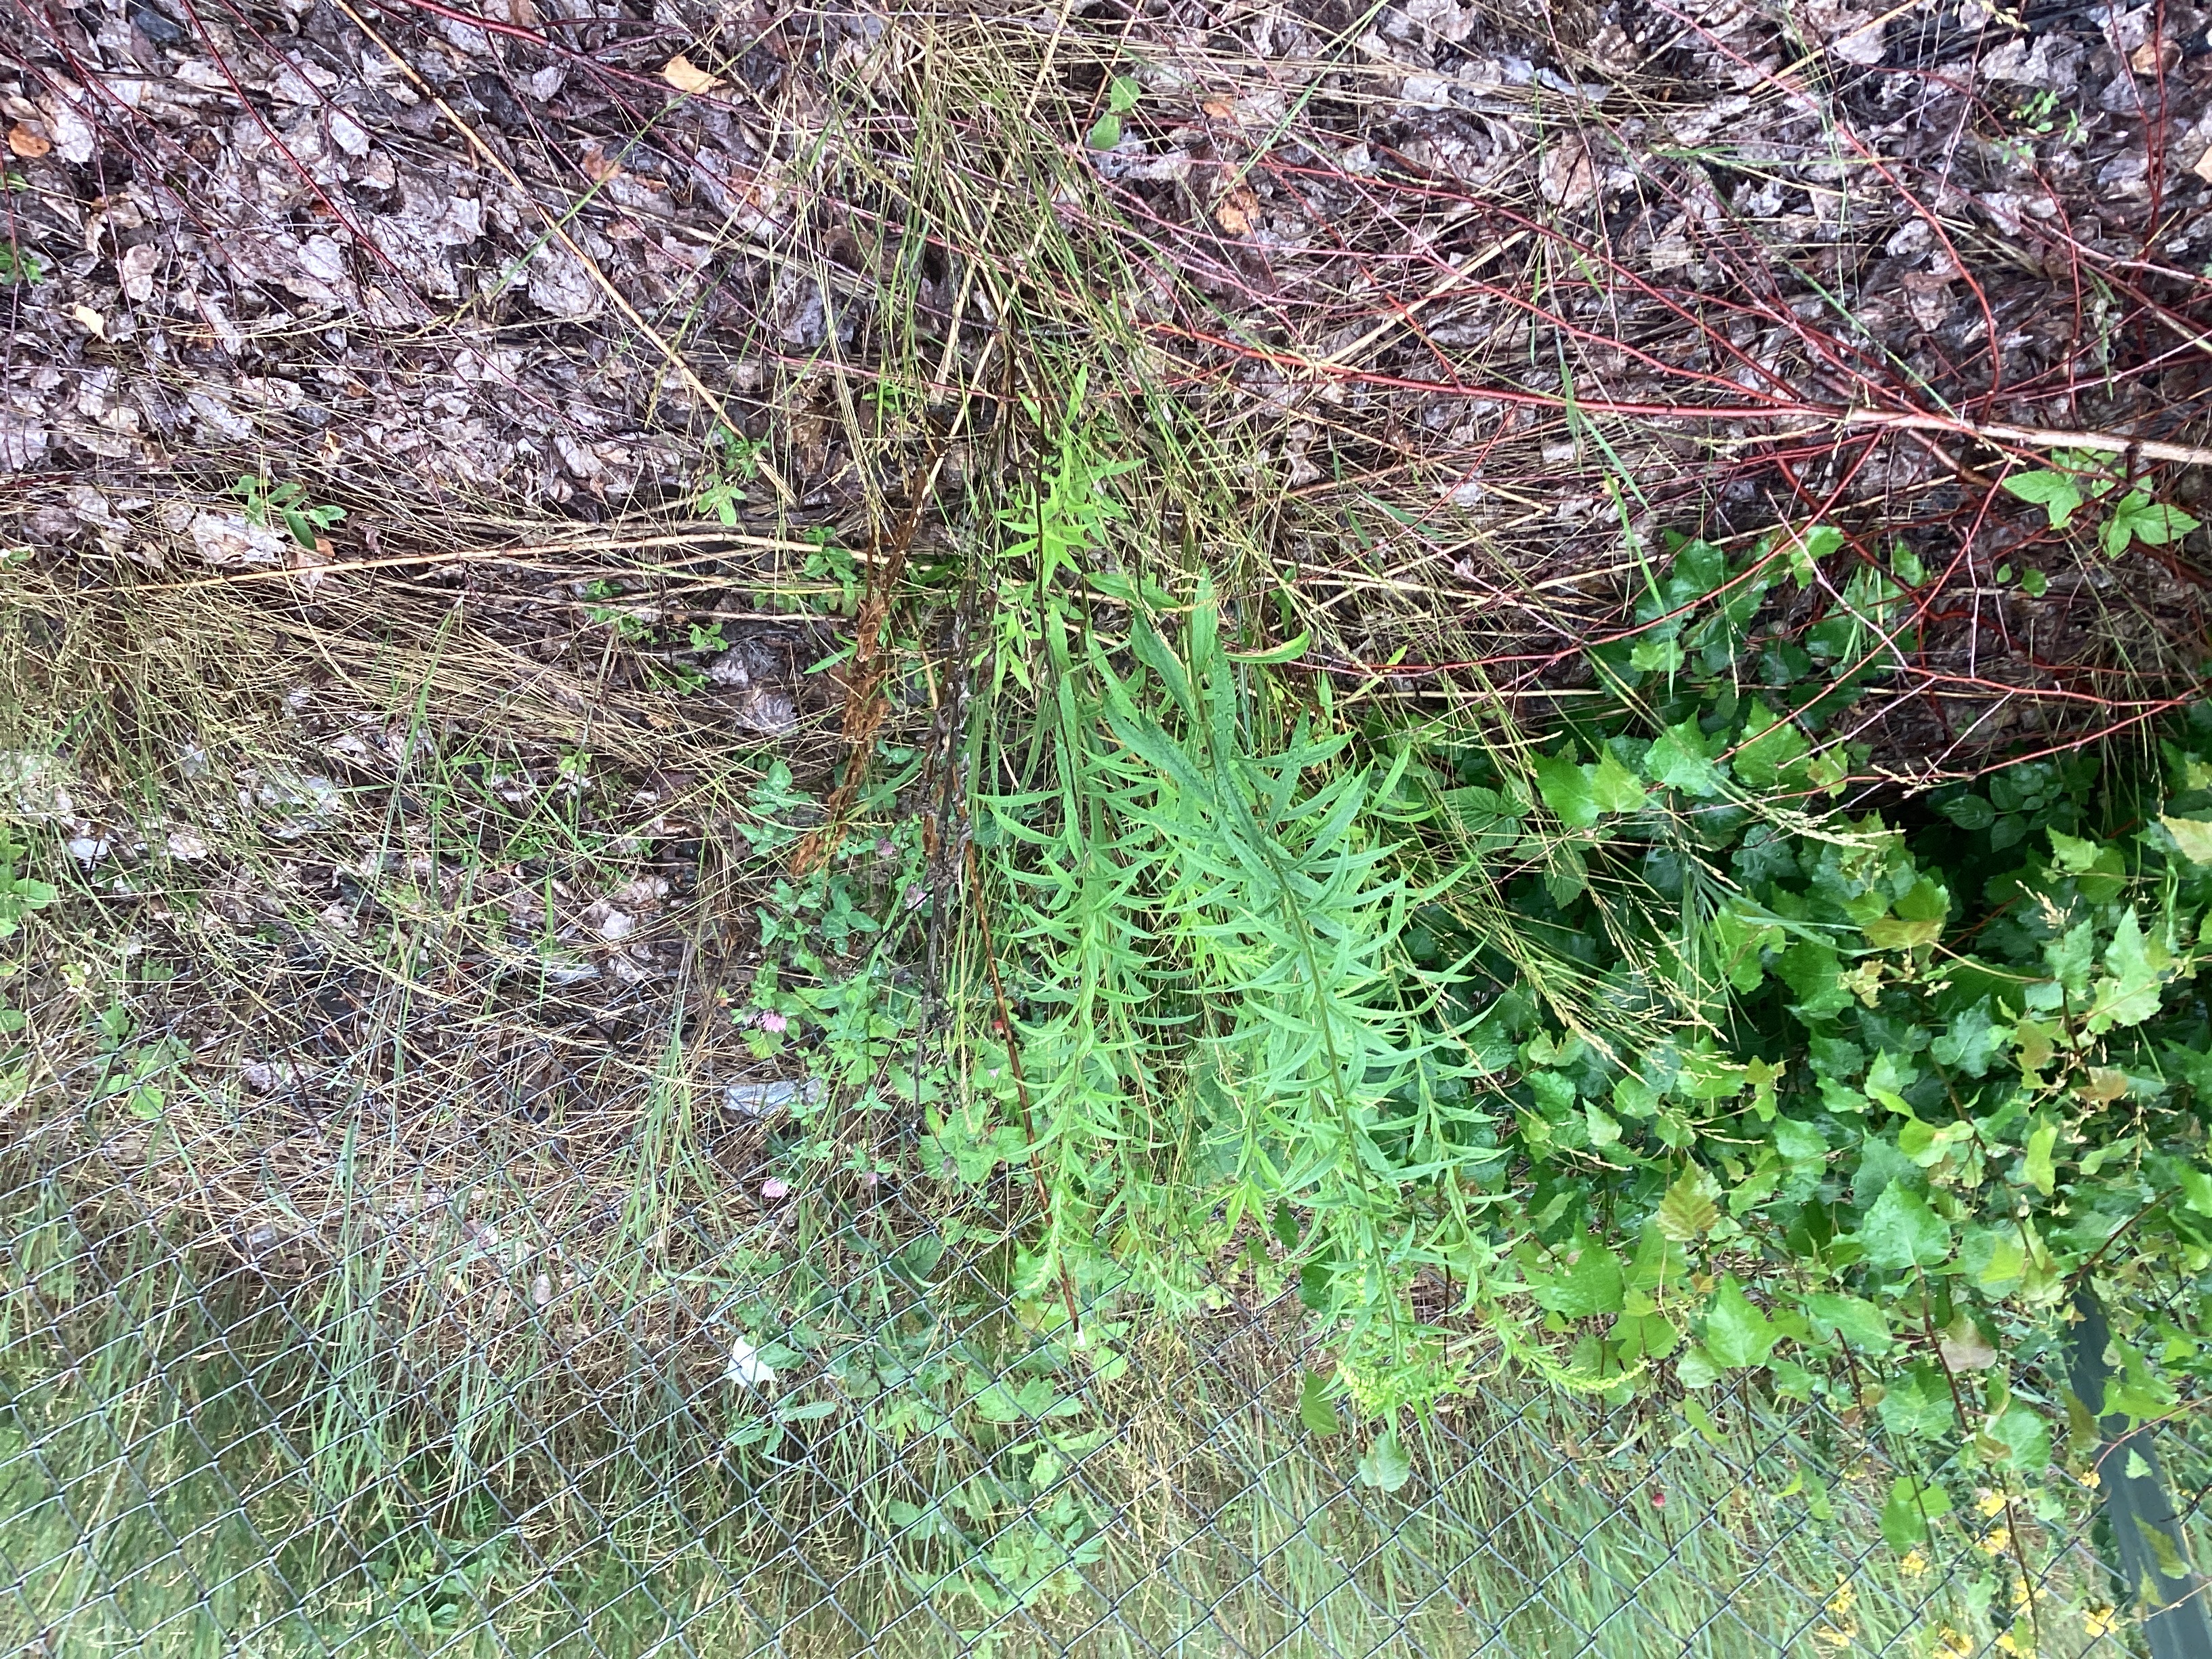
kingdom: Plantae
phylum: Tracheophyta
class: Magnoliopsida
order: Asterales
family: Asteraceae
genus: Solidago
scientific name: Solidago canadensis
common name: kanadagullris
